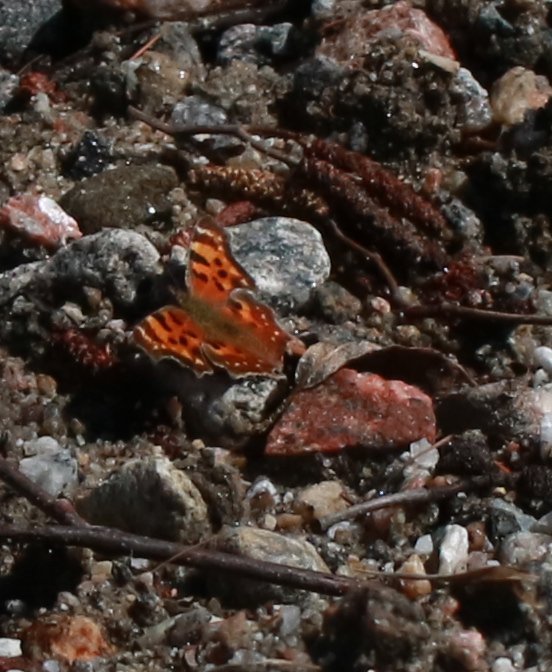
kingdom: Animalia
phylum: Arthropoda
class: Insecta
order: Lepidoptera
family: Nymphalidae
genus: Polygonia
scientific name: Polygonia faunus
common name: Green Comma
